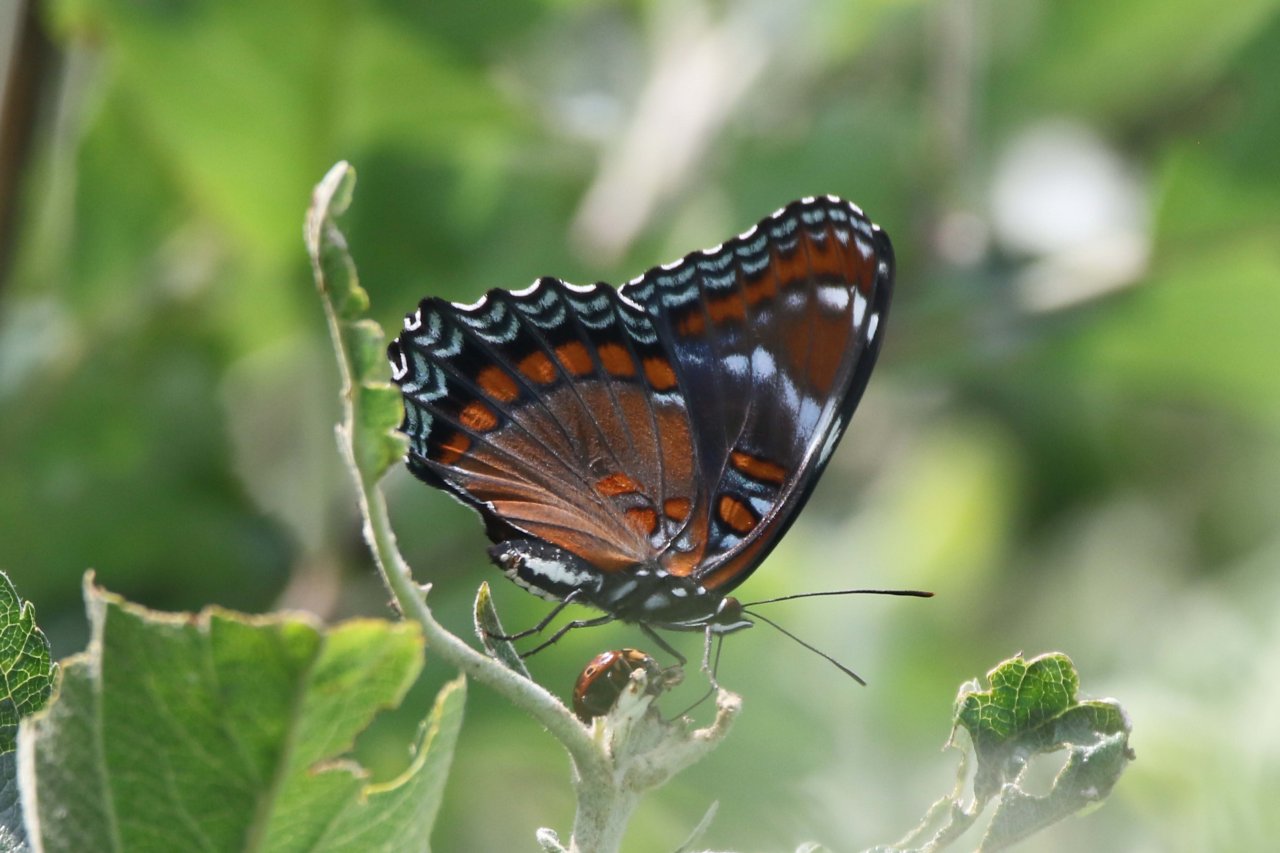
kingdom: Animalia
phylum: Arthropoda
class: Insecta
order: Lepidoptera
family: Nymphalidae
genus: Limenitis
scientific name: Limenitis
